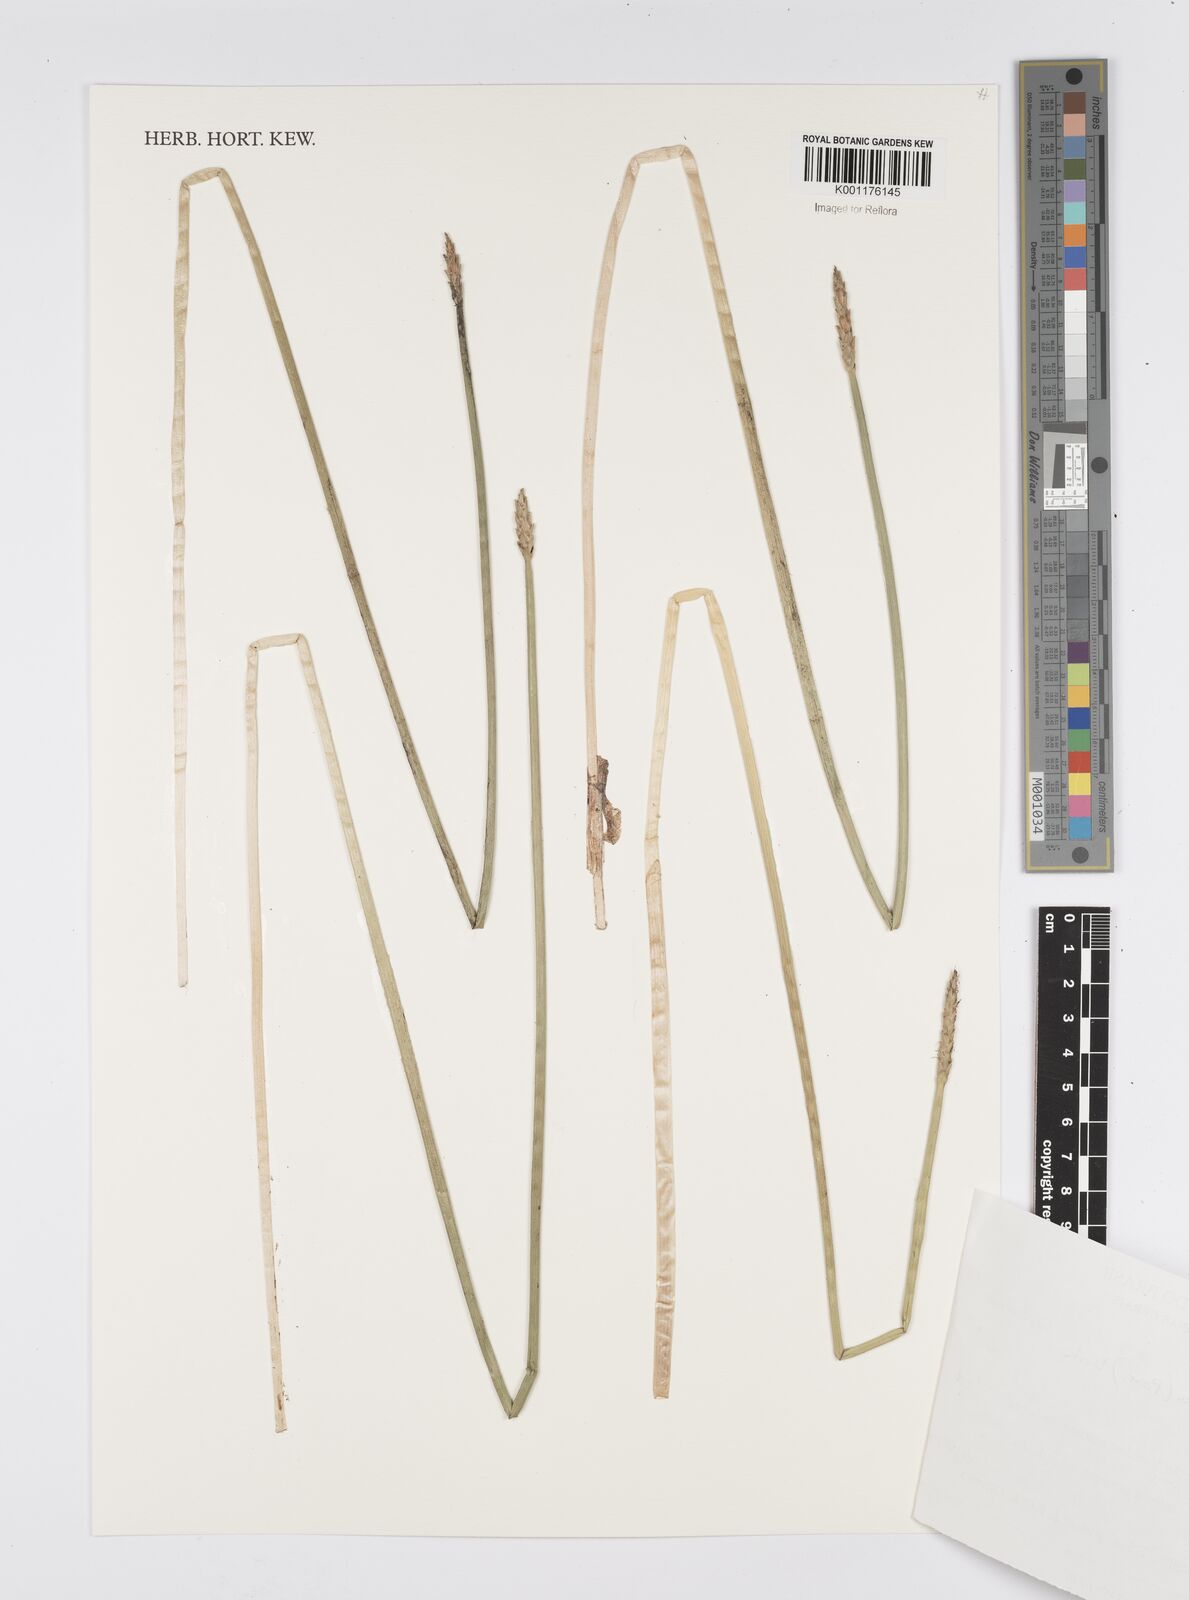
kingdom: Plantae
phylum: Tracheophyta
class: Liliopsida
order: Poales
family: Cyperaceae
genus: Eleocharis
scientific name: Eleocharis acutangula
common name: Acute spikerush
